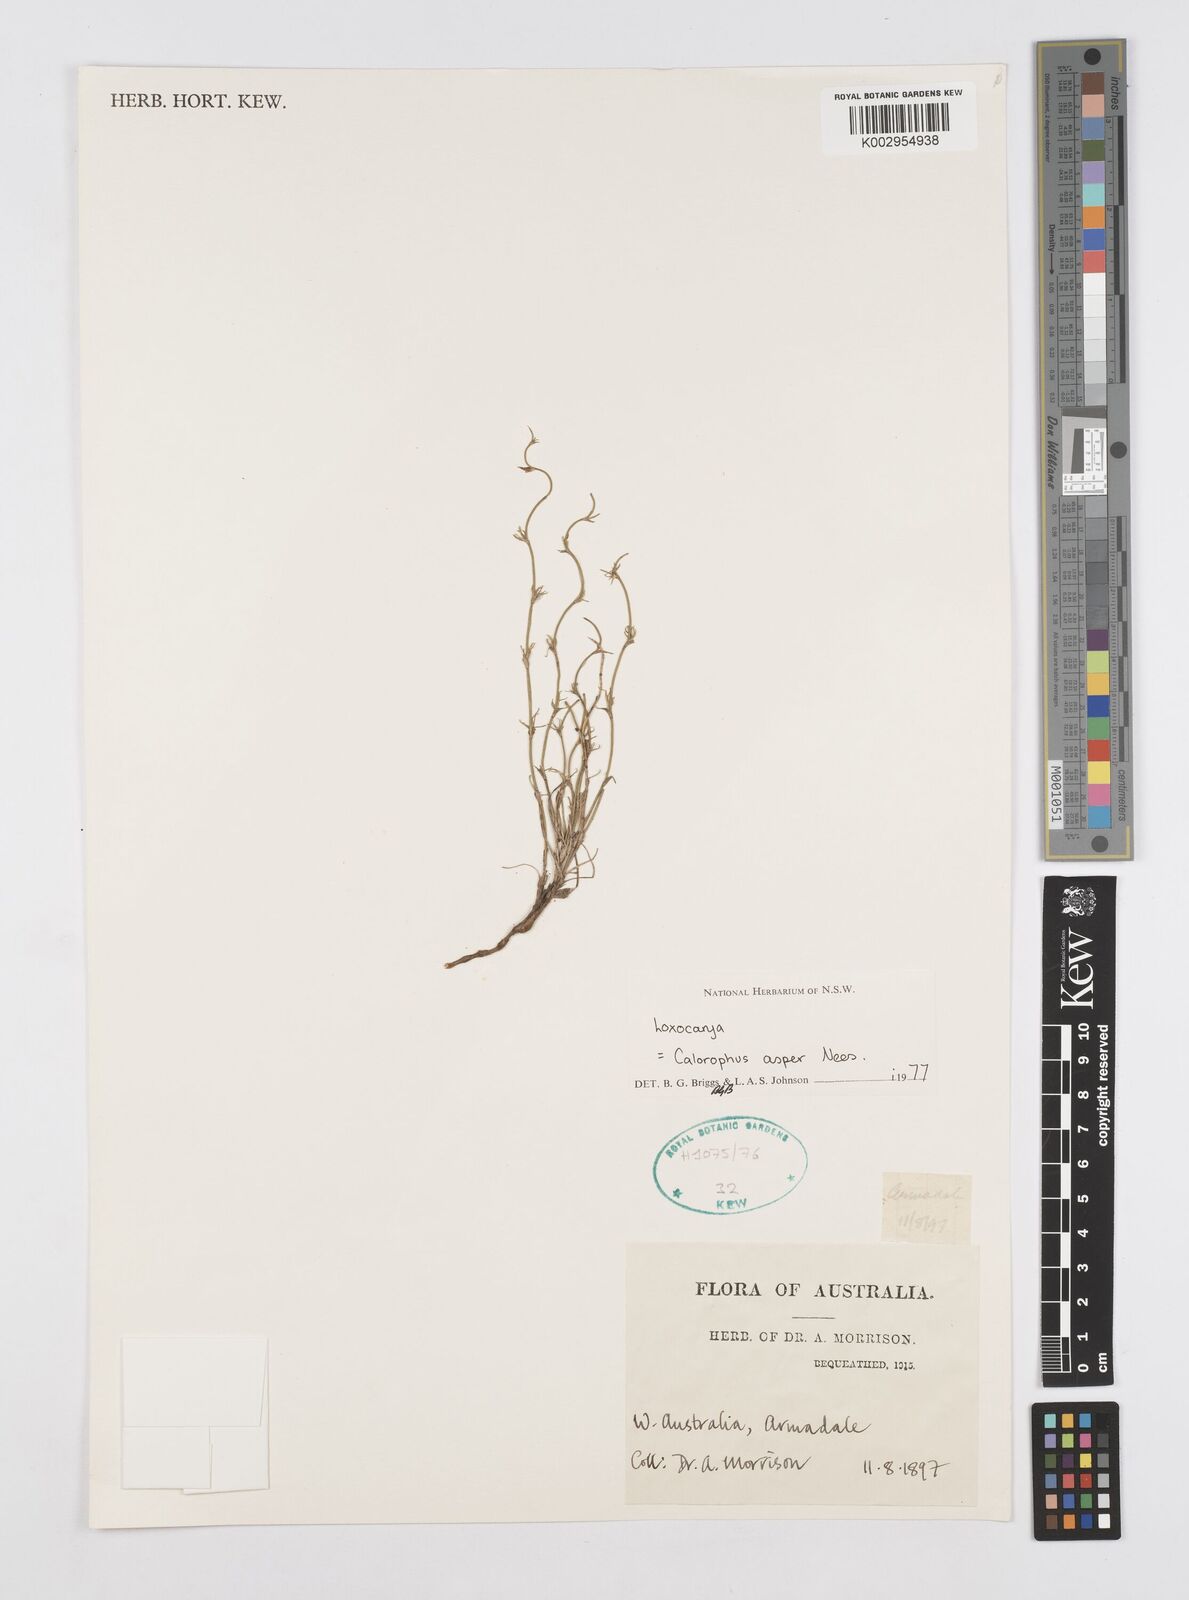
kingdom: Plantae
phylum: Tracheophyta
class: Liliopsida
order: Poales
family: Restionaceae
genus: Desmocladus
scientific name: Desmocladus asper
